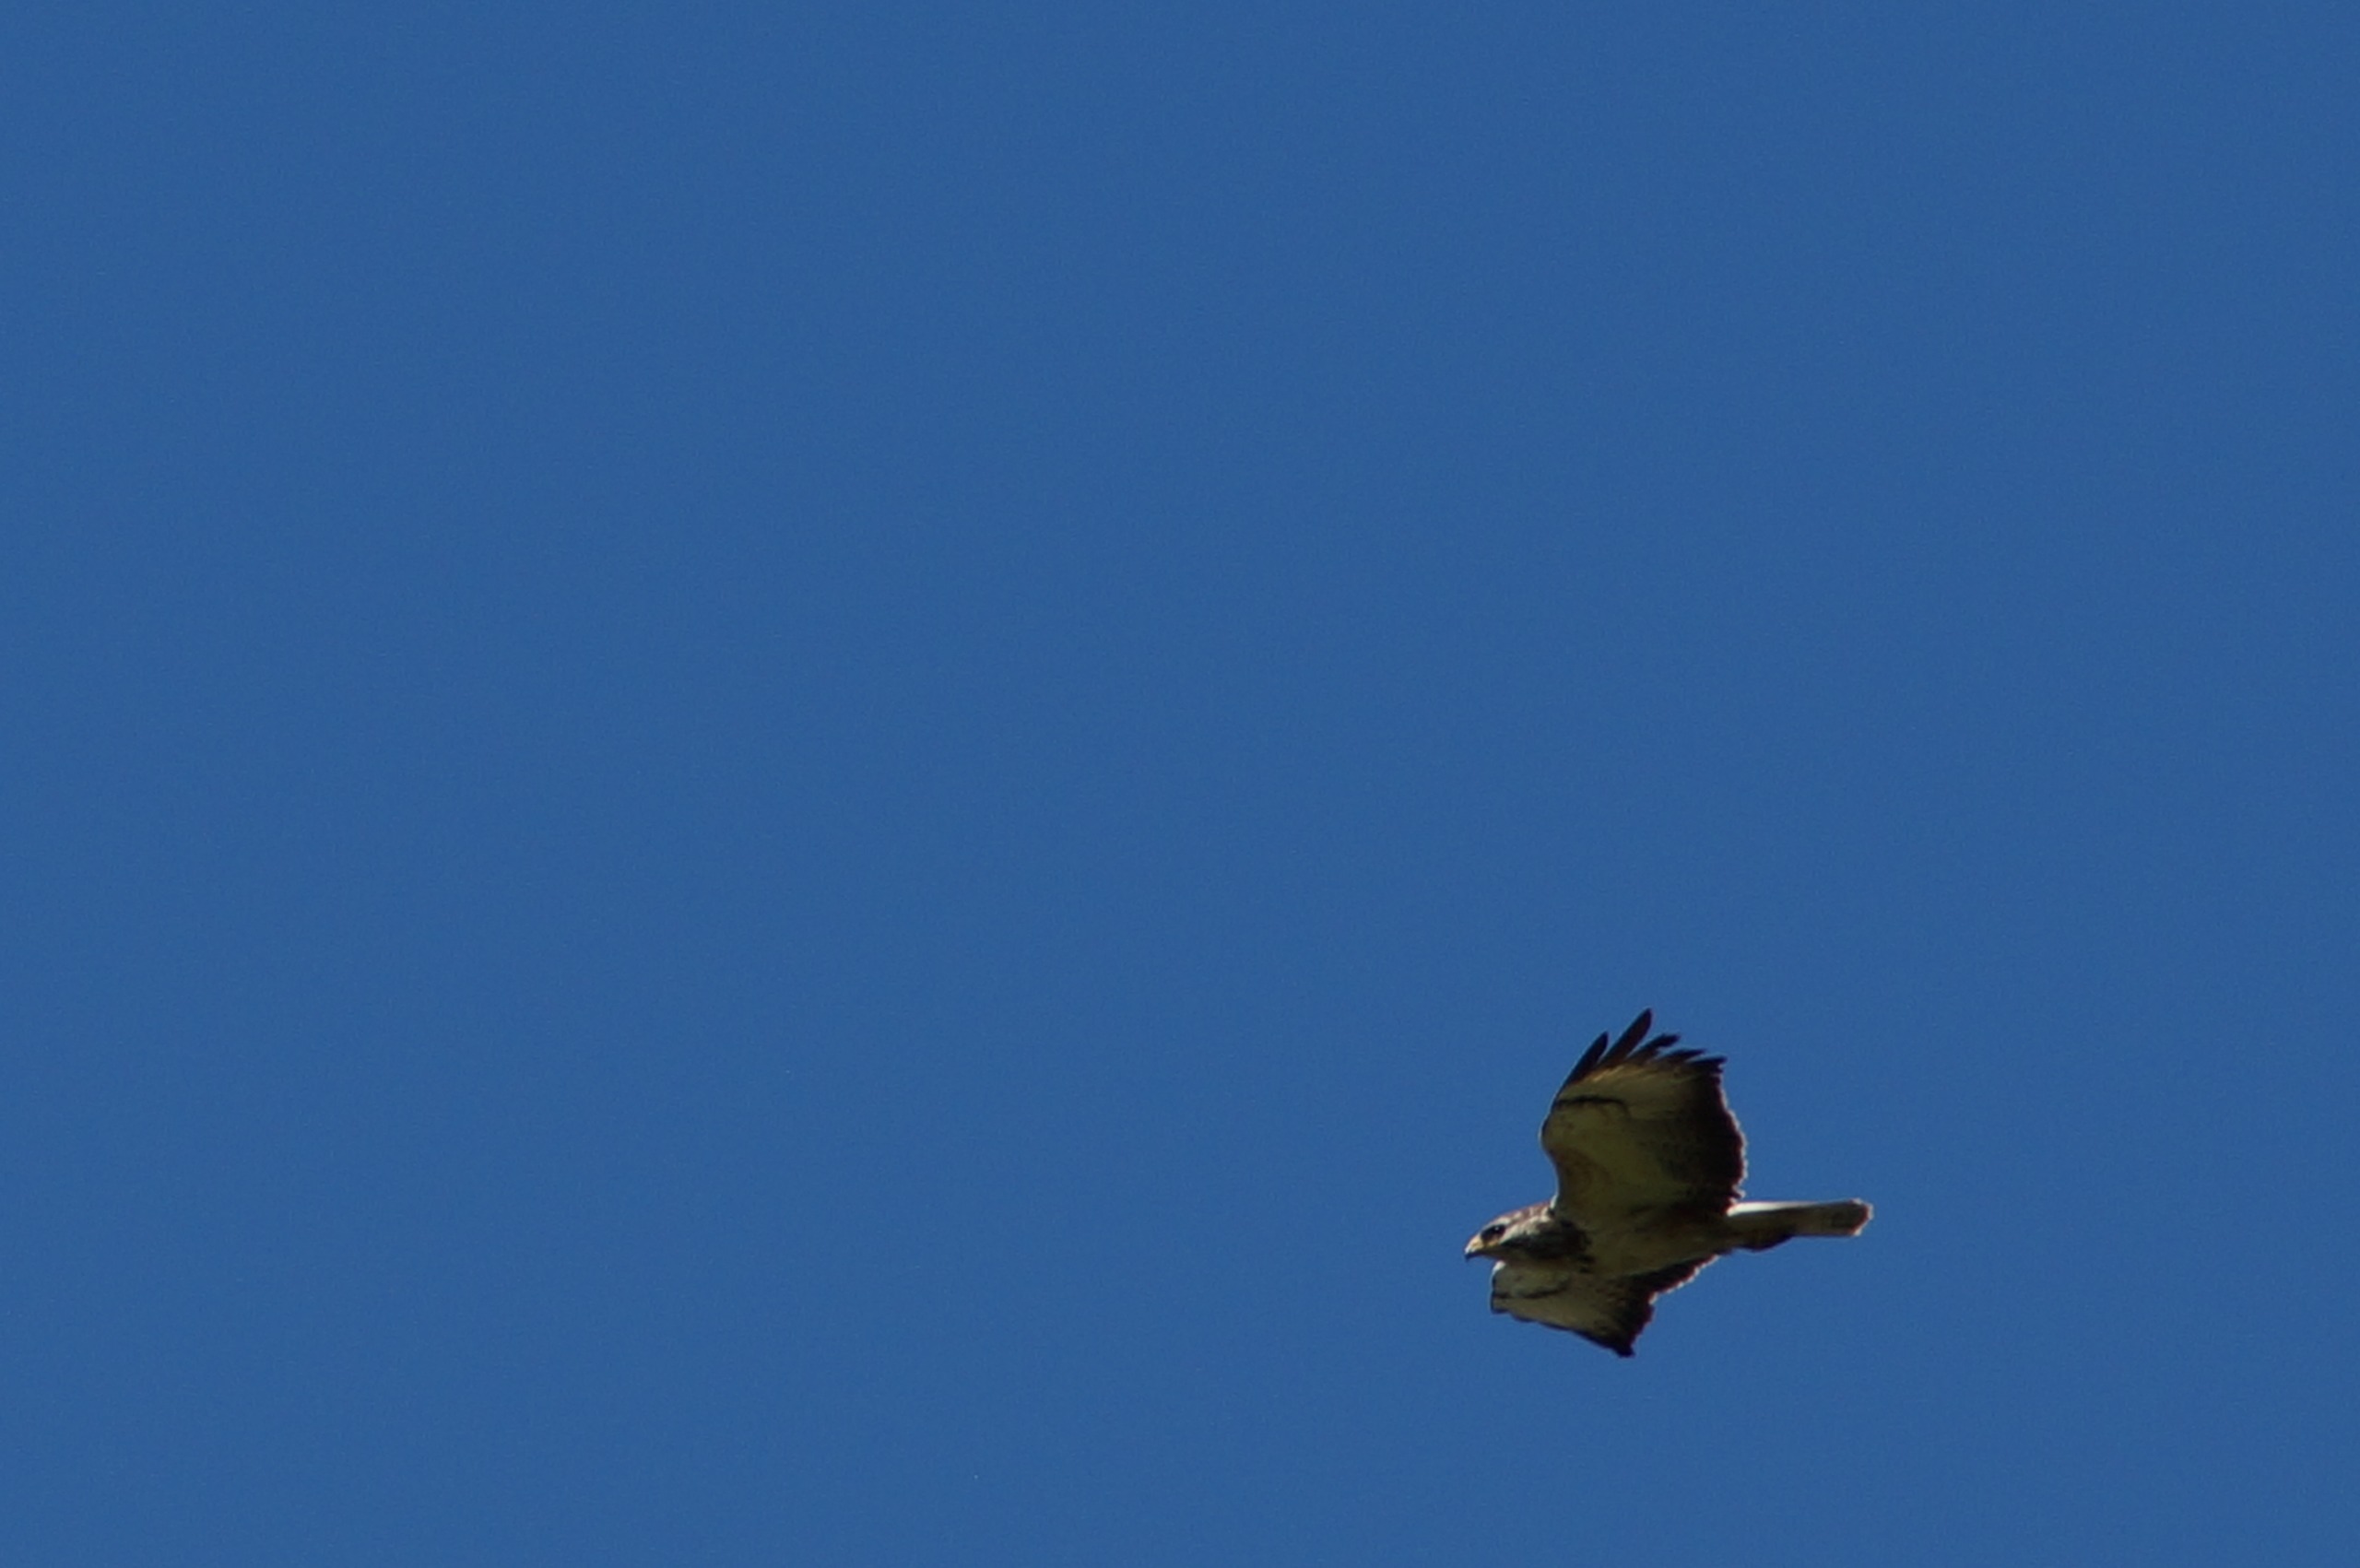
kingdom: Animalia
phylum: Chordata
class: Aves
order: Accipitriformes
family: Accipitridae
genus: Buteo
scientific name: Buteo buteo
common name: Musvåge
